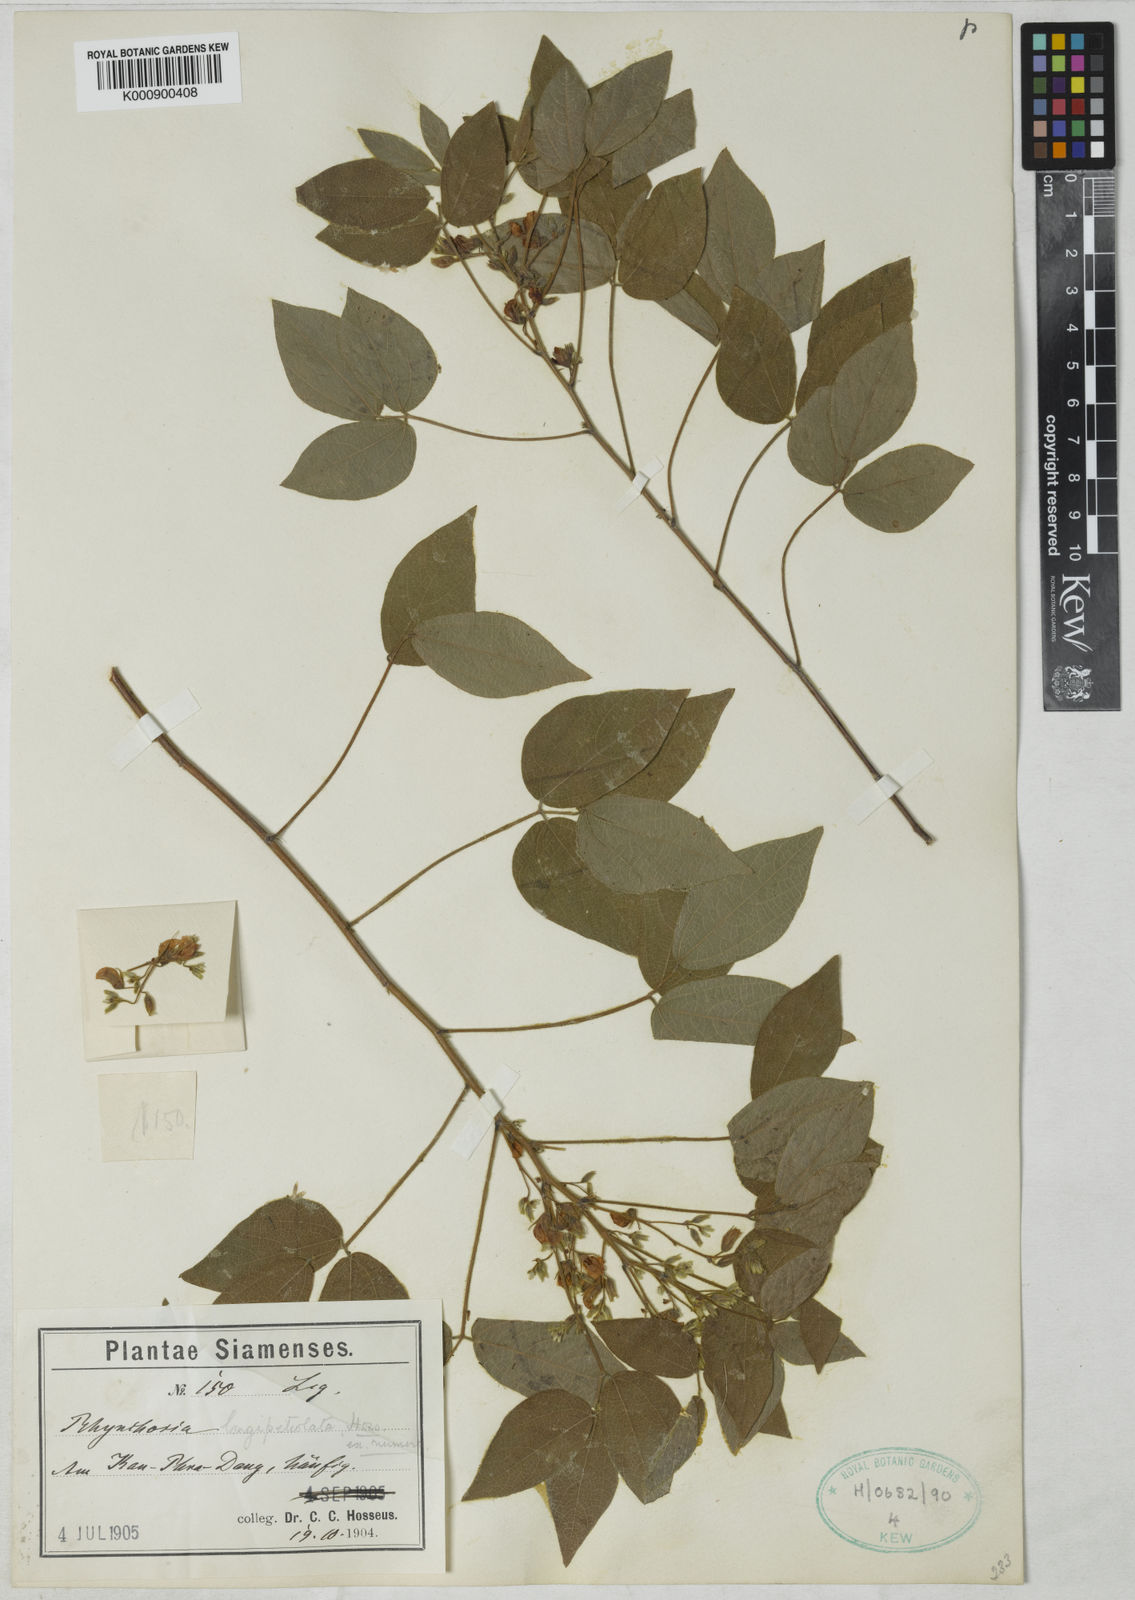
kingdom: Plantae
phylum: Tracheophyta
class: Magnoliopsida
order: Fabales
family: Fabaceae
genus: Rhynchosia
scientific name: Rhynchosia longipetiolata
